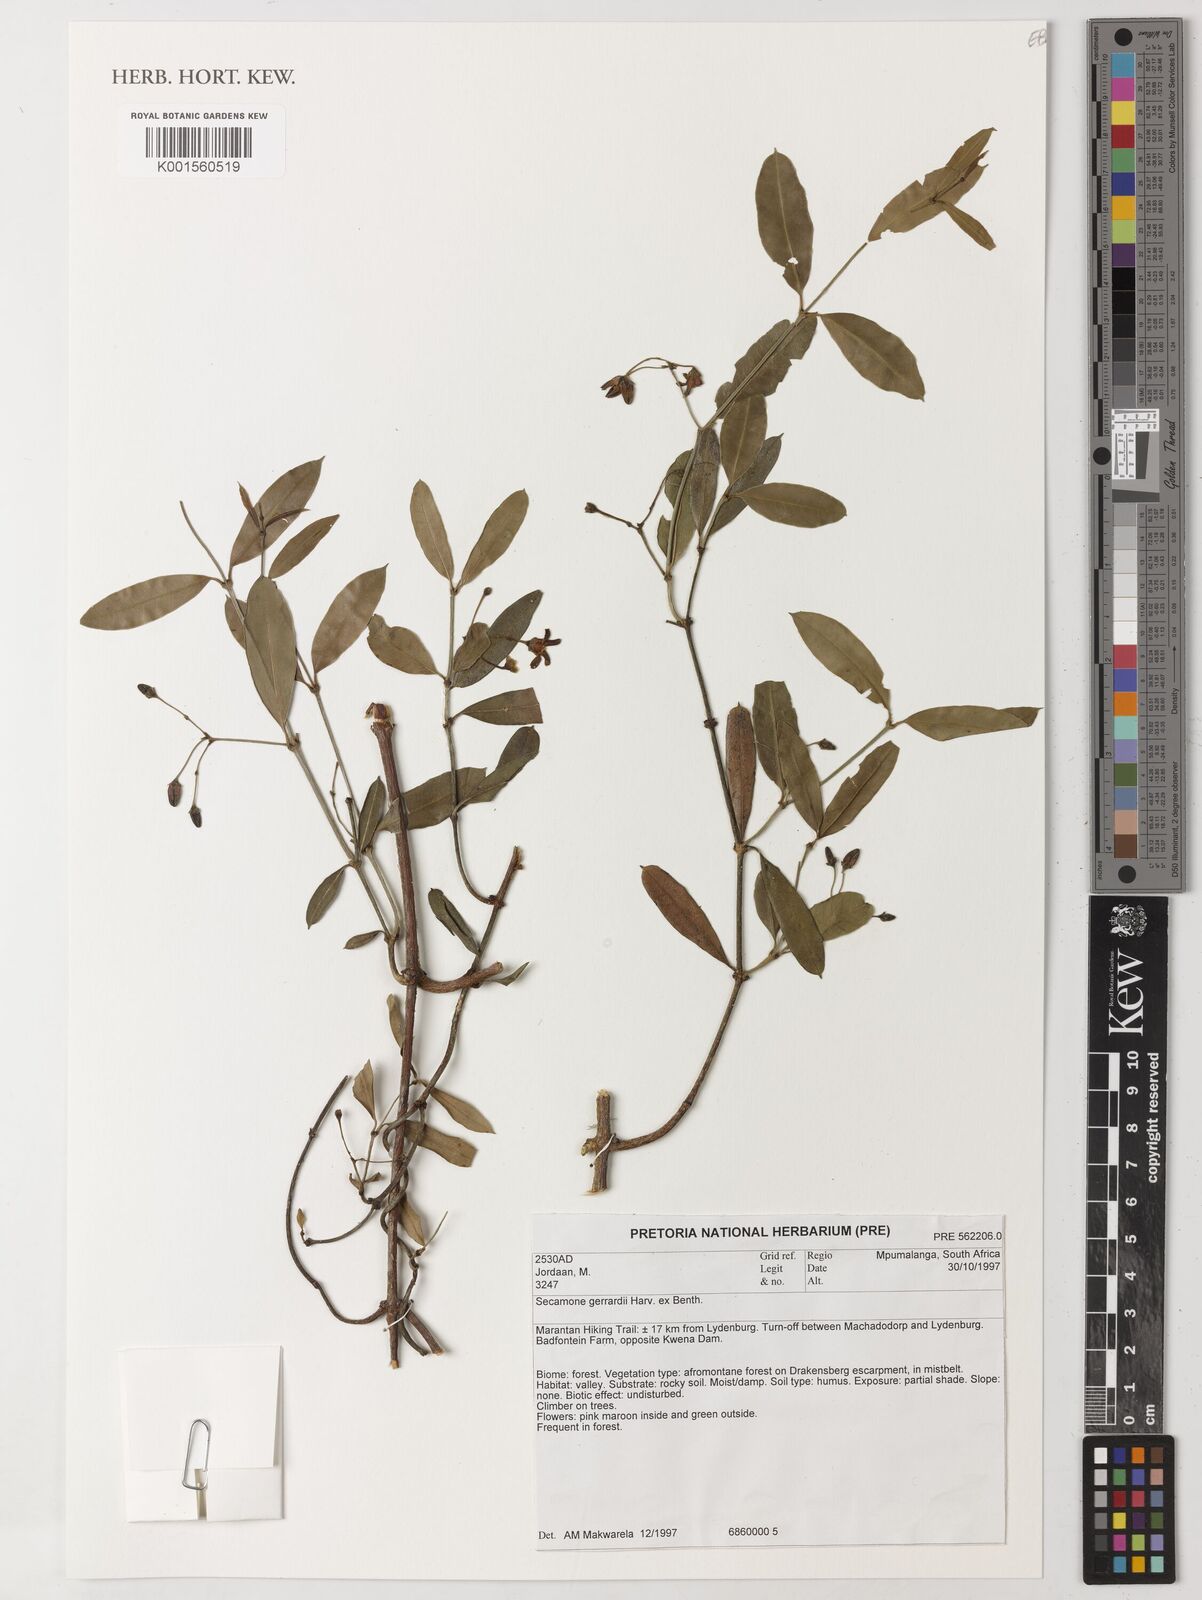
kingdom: Plantae
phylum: Tracheophyta
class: Magnoliopsida
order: Gentianales
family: Apocynaceae
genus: Secamone
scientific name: Secamone gerrardii
